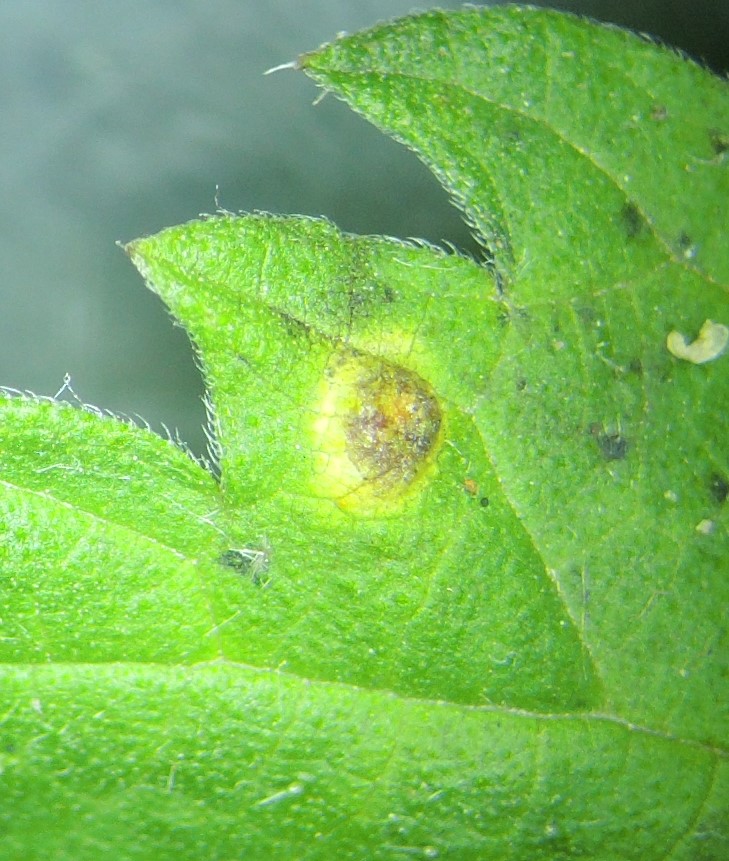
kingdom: Fungi
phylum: Basidiomycota
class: Pucciniomycetes
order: Pucciniales
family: Pucciniaceae
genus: Puccinia
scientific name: Puccinia
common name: tvecellerust
